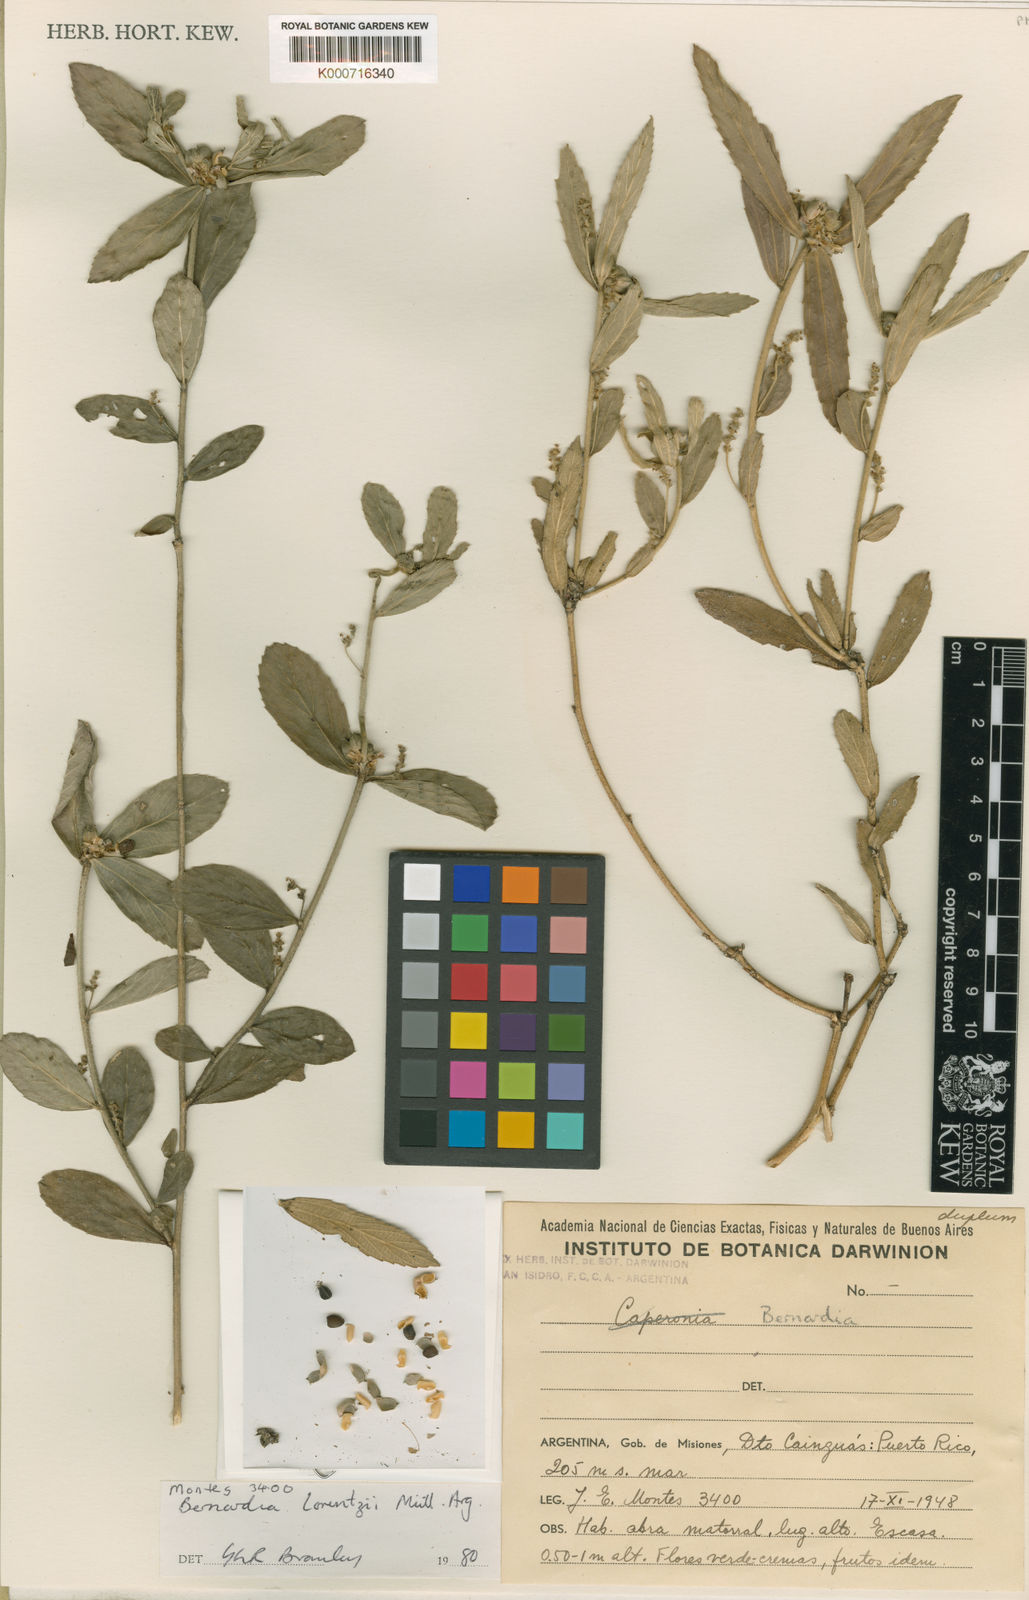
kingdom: Plantae
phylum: Tracheophyta
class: Magnoliopsida
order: Malpighiales
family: Euphorbiaceae
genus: Bernardia
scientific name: Bernardia
